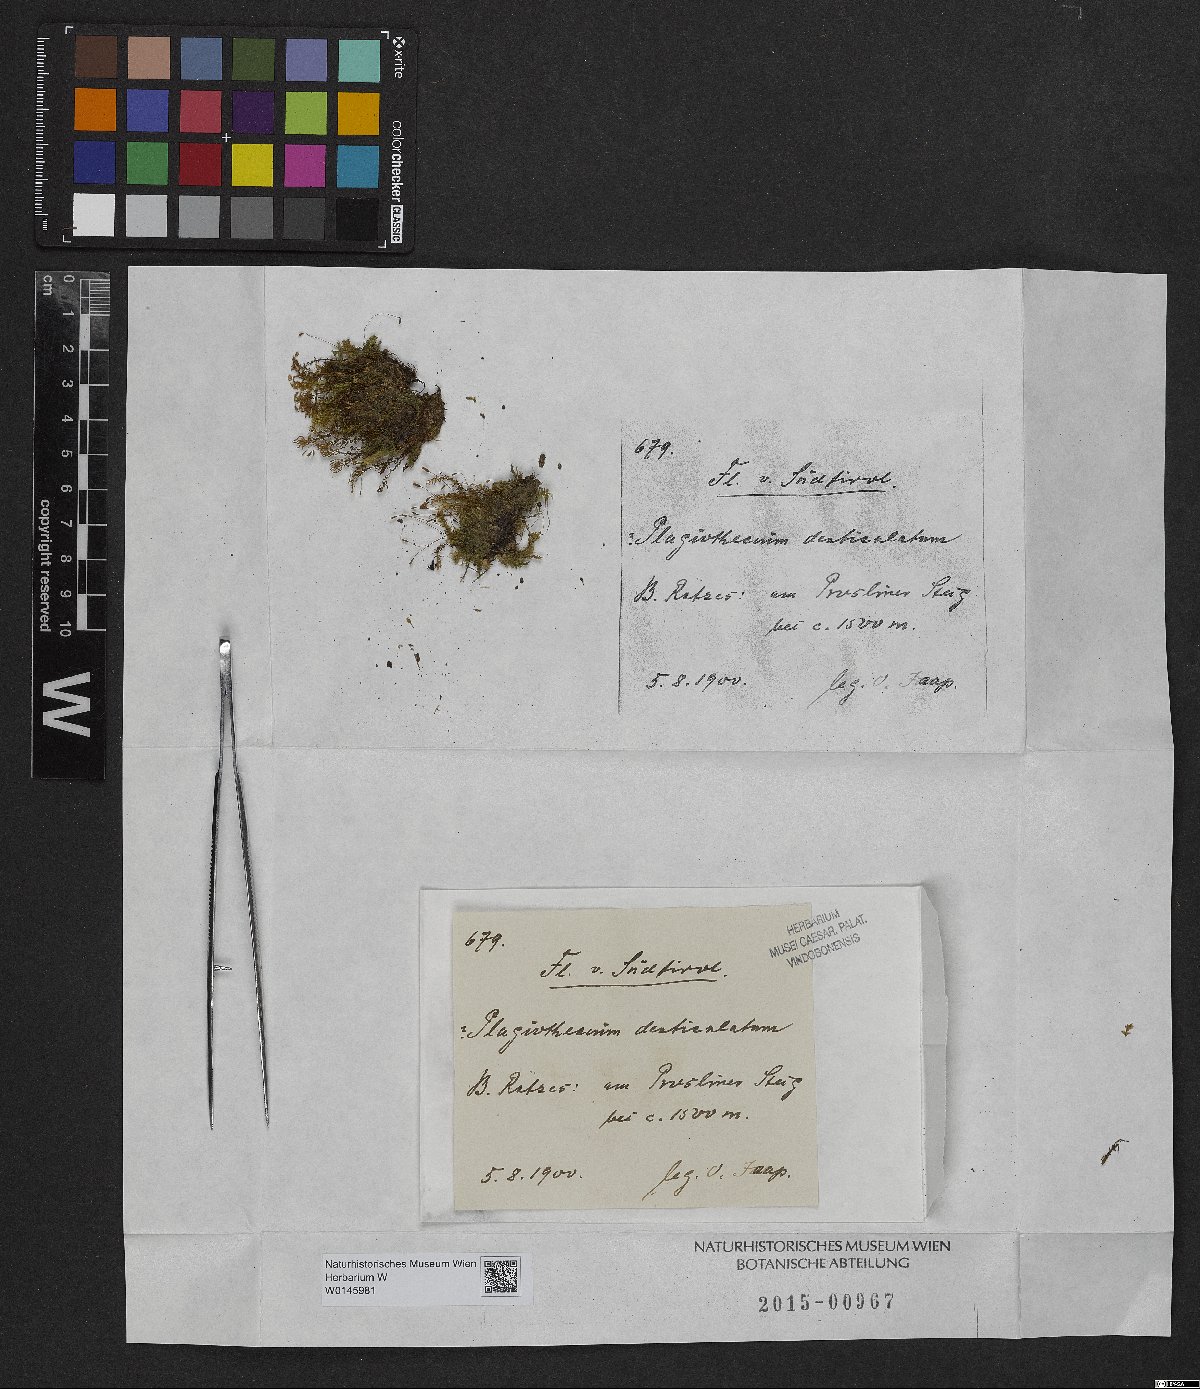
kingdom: Plantae
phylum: Bryophyta
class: Bryopsida
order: Hypnales
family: Plagiotheciaceae
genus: Plagiothecium
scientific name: Plagiothecium denticulatum
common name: Dented silk moss
